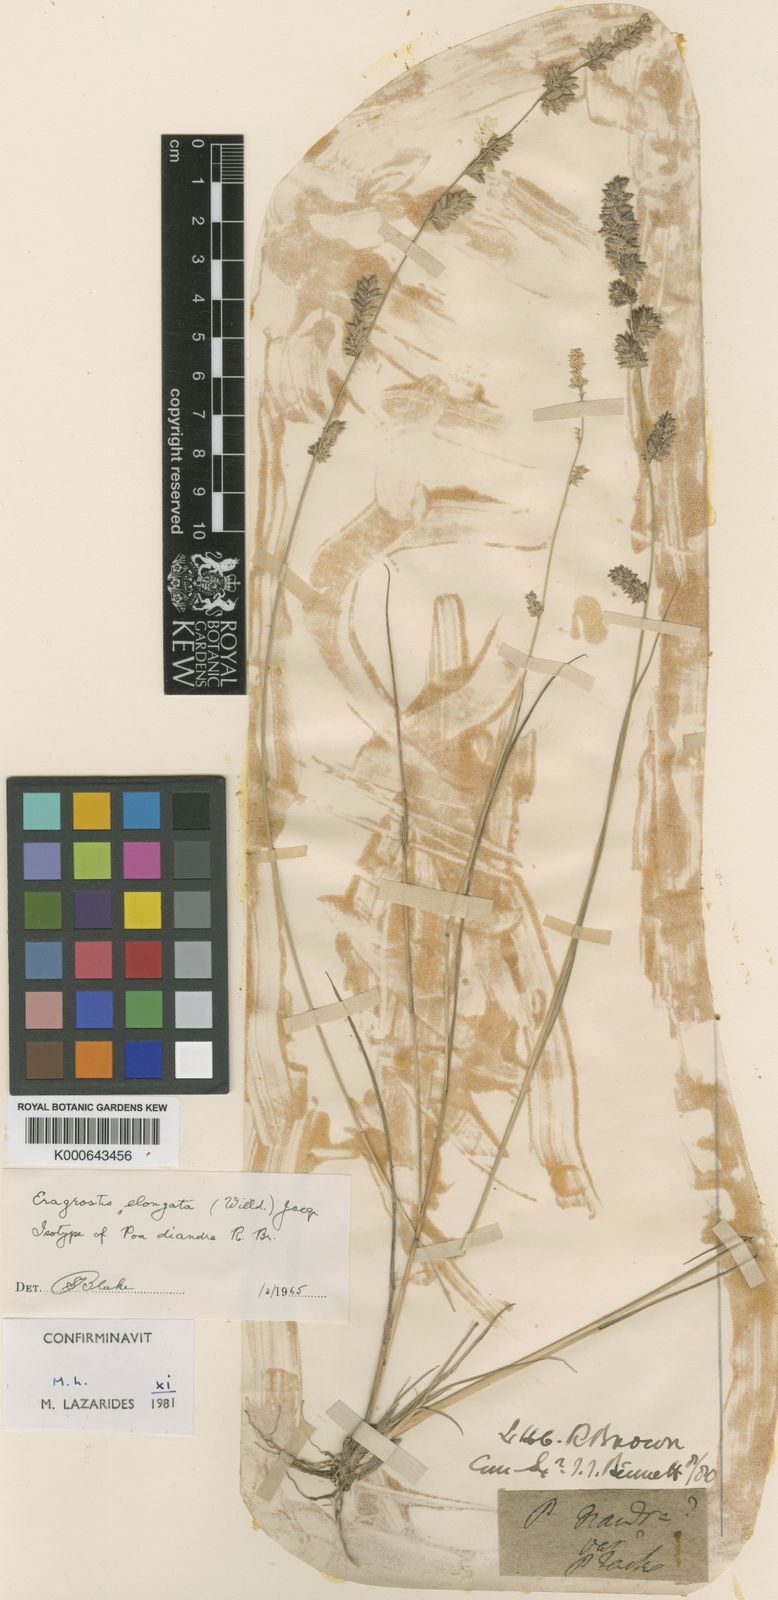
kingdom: Plantae
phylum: Tracheophyta
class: Liliopsida
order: Poales
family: Poaceae
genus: Eragrostis
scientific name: Eragrostis elongata
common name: Long lovegrass
